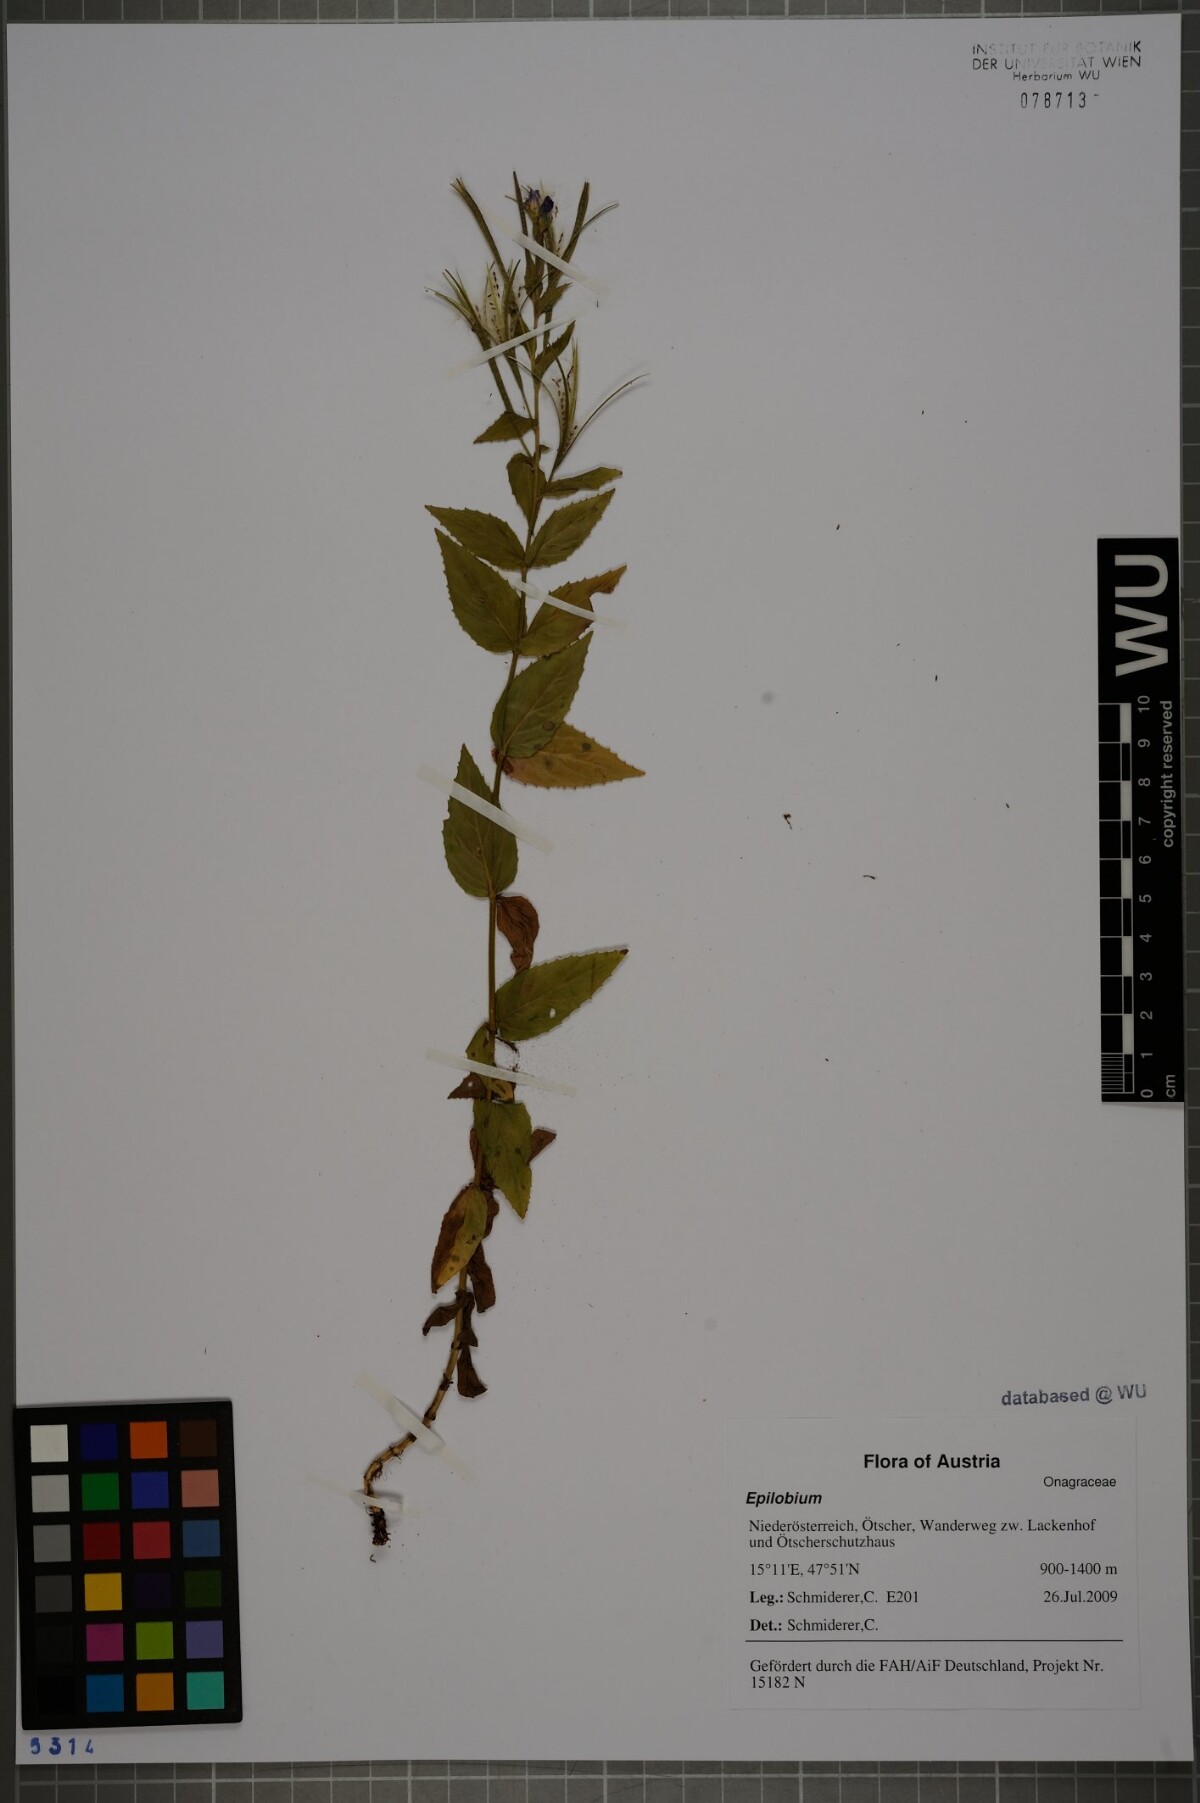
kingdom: Plantae
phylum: Tracheophyta
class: Magnoliopsida
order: Myrtales
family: Onagraceae
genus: Epilobium
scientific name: Epilobium alpestre
